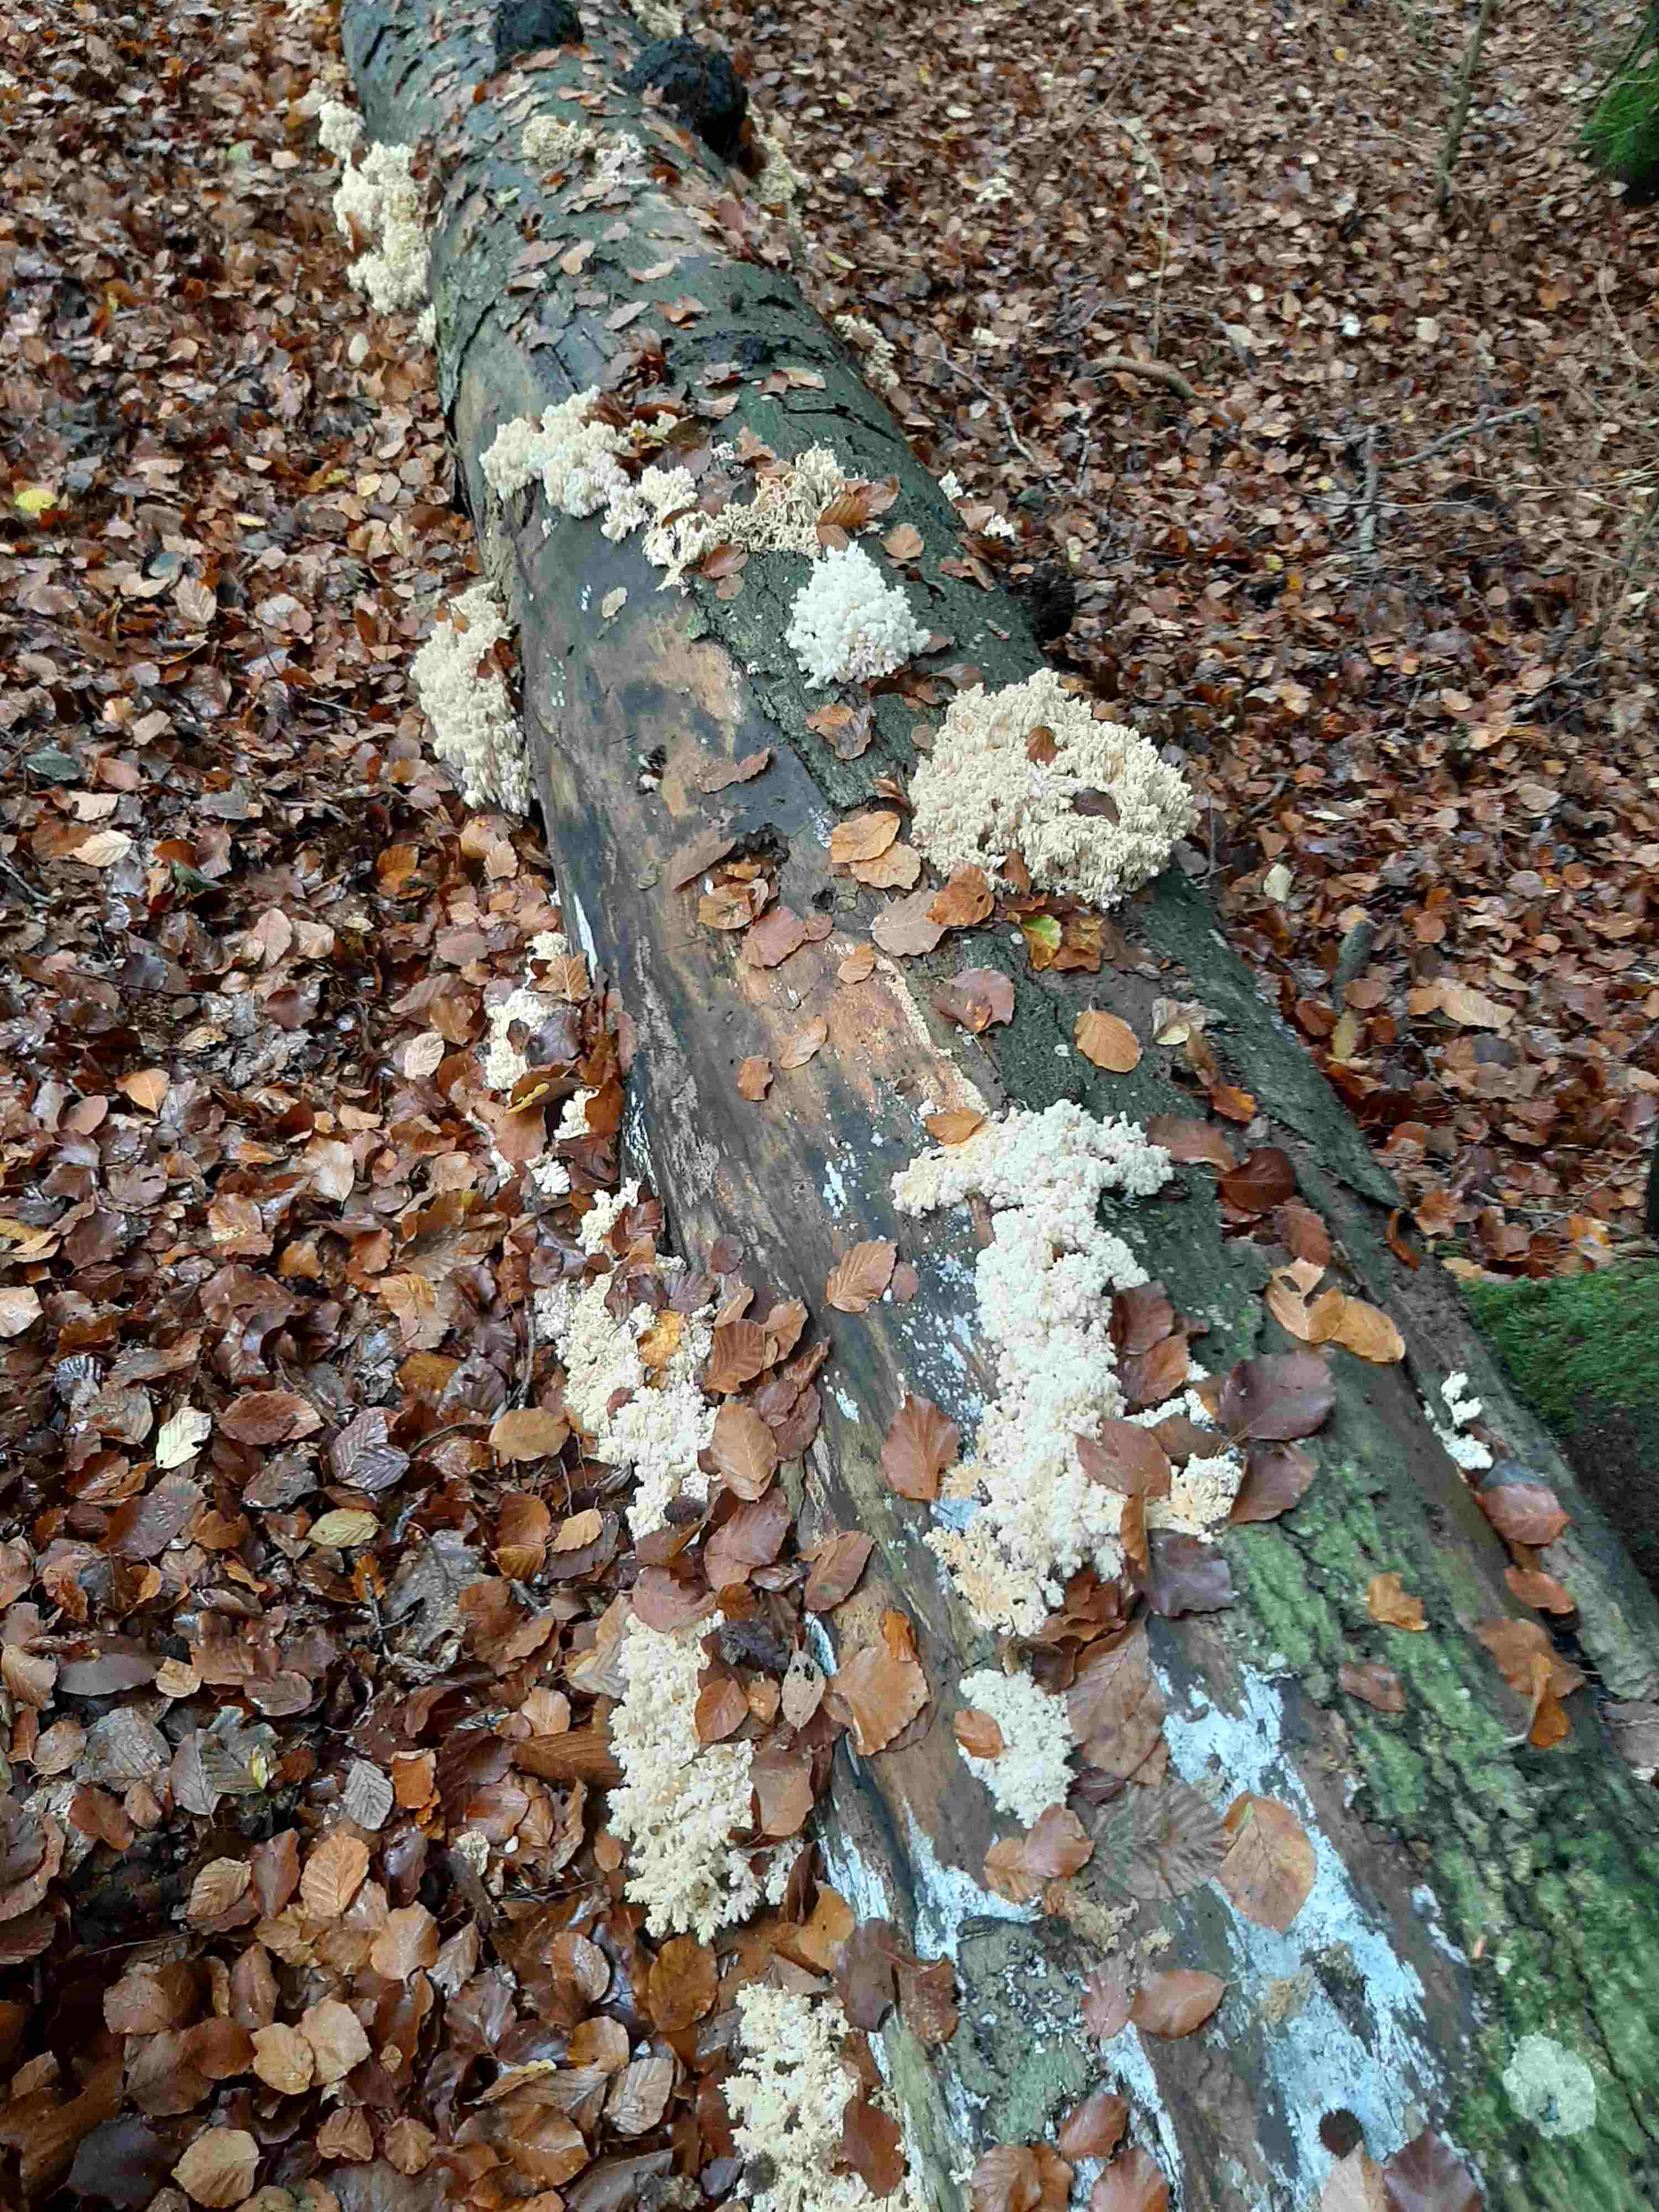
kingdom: Fungi
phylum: Basidiomycota
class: Agaricomycetes
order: Russulales
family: Hericiaceae
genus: Hericium
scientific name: Hericium coralloides
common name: koralpigsvamp
